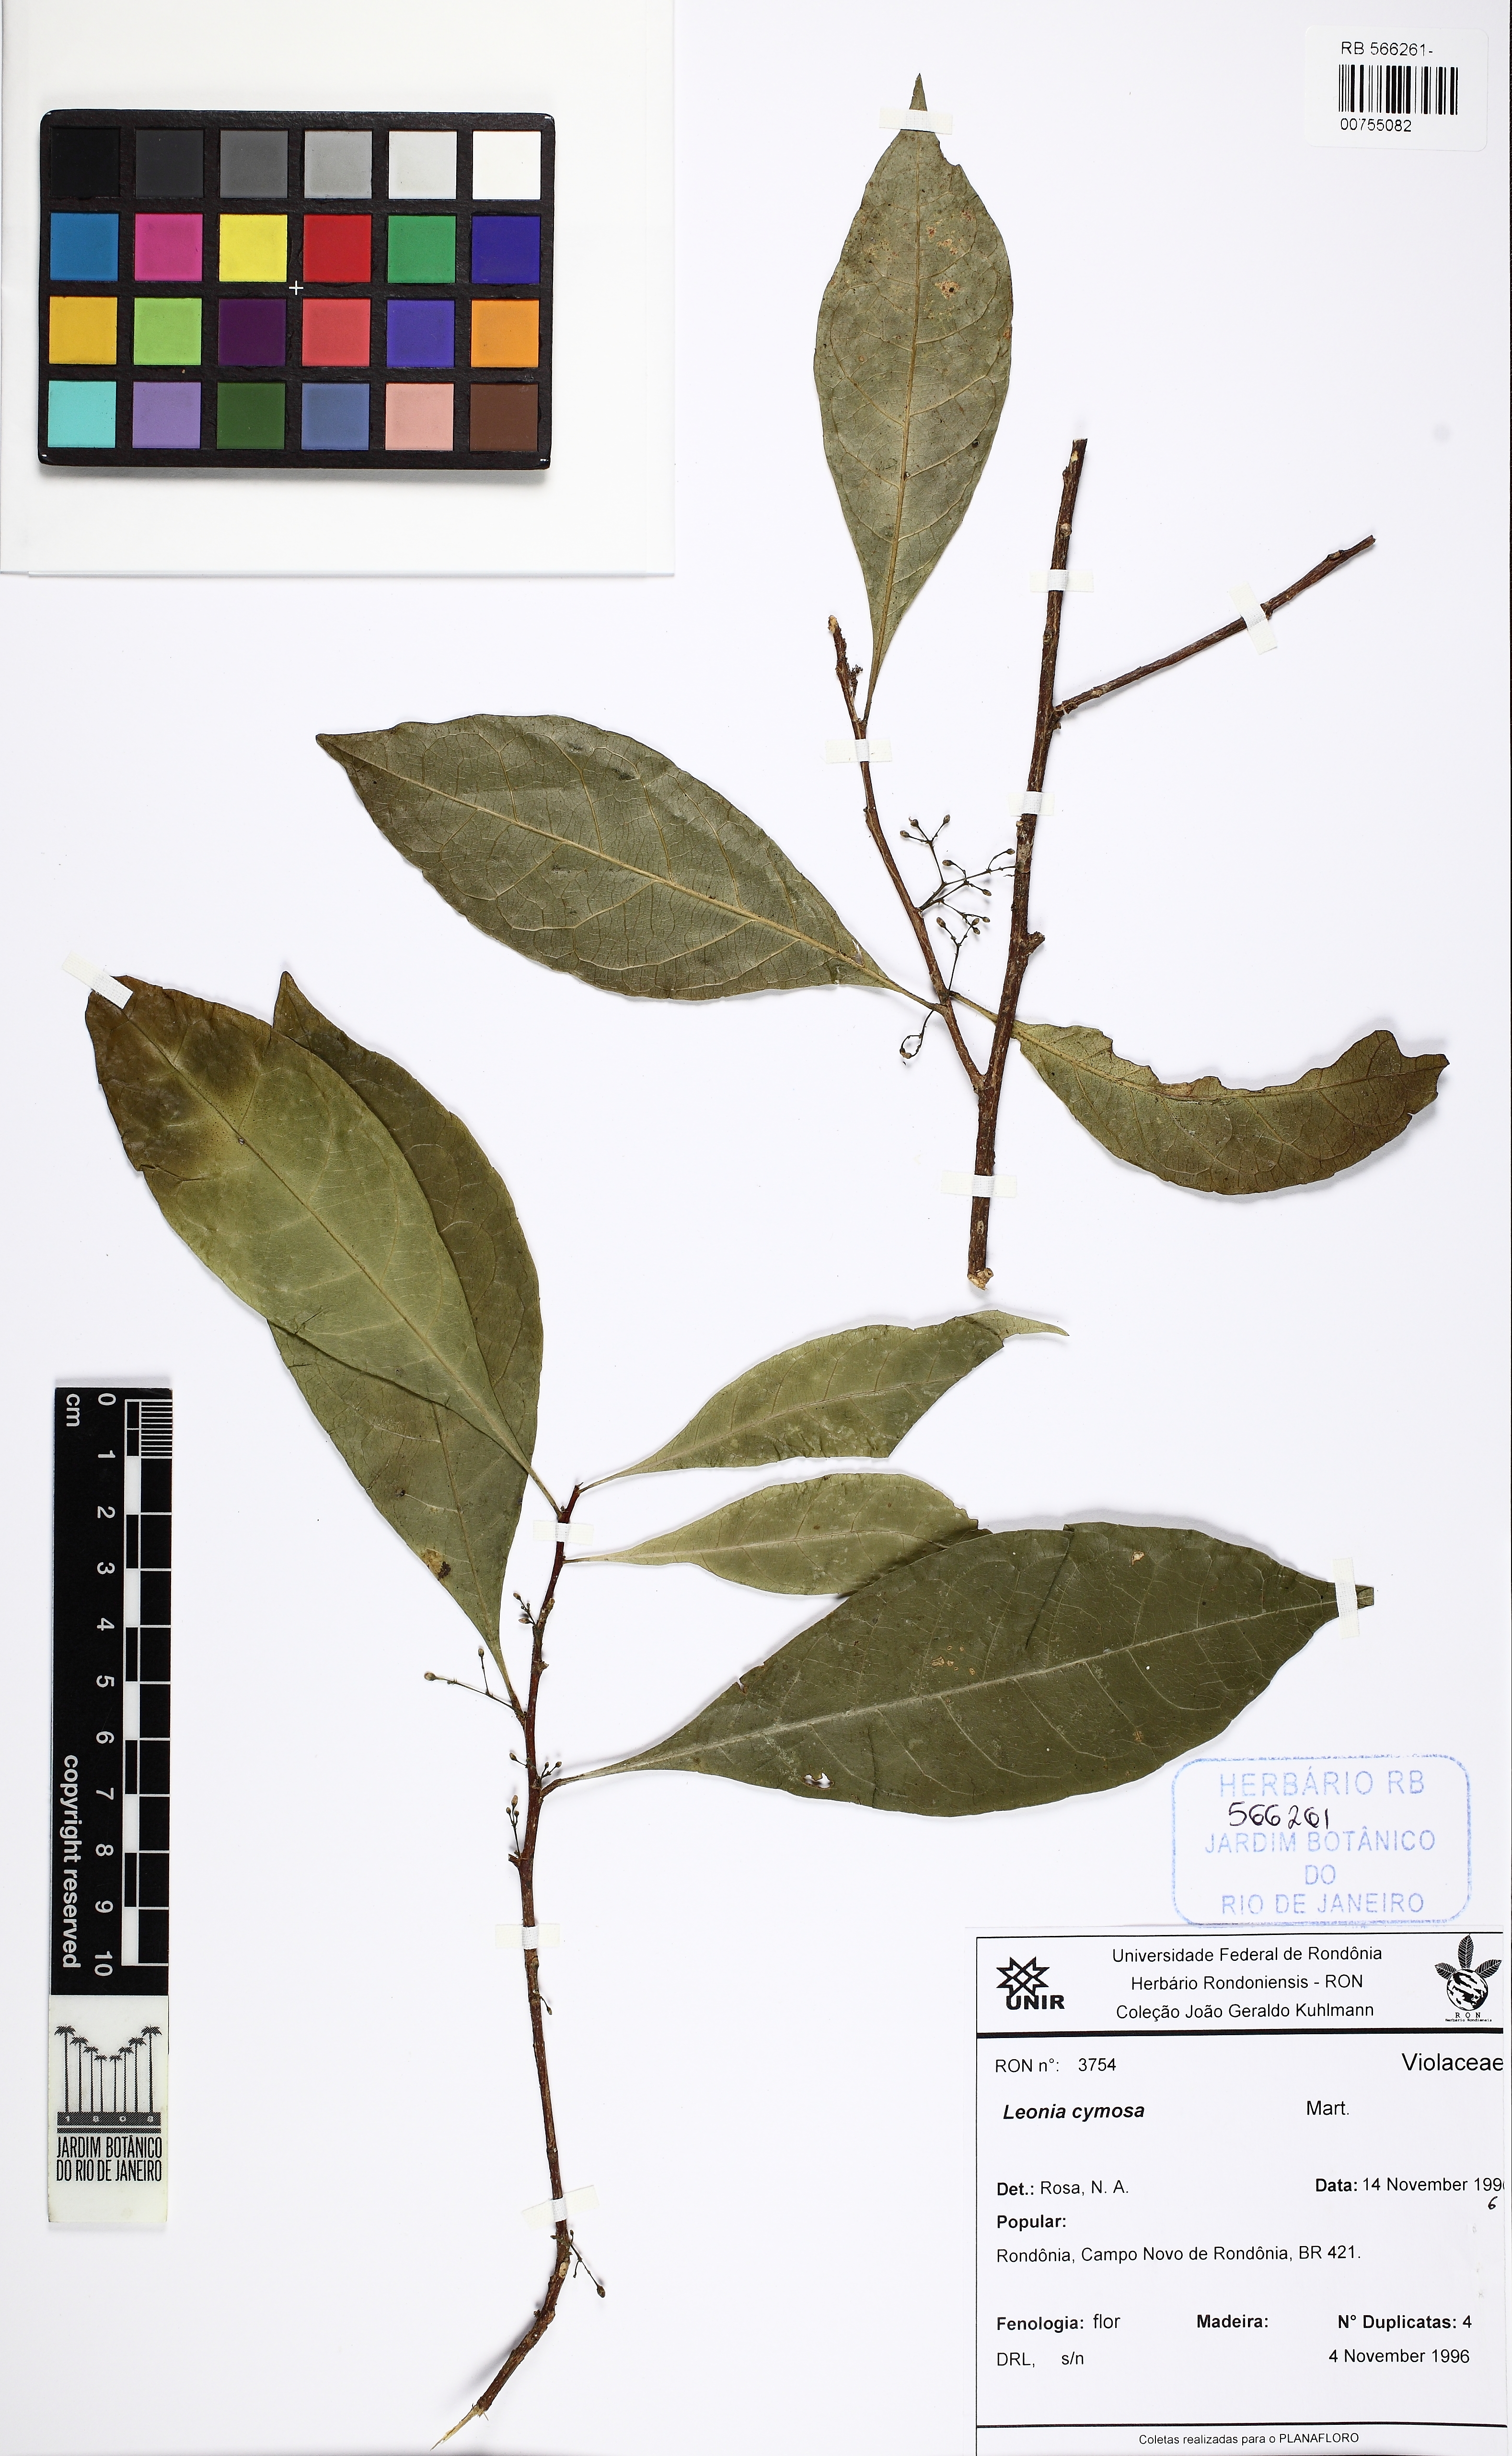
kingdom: Plantae
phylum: Tracheophyta
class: Magnoliopsida
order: Malpighiales
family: Violaceae
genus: Leonia
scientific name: Leonia cymosa
